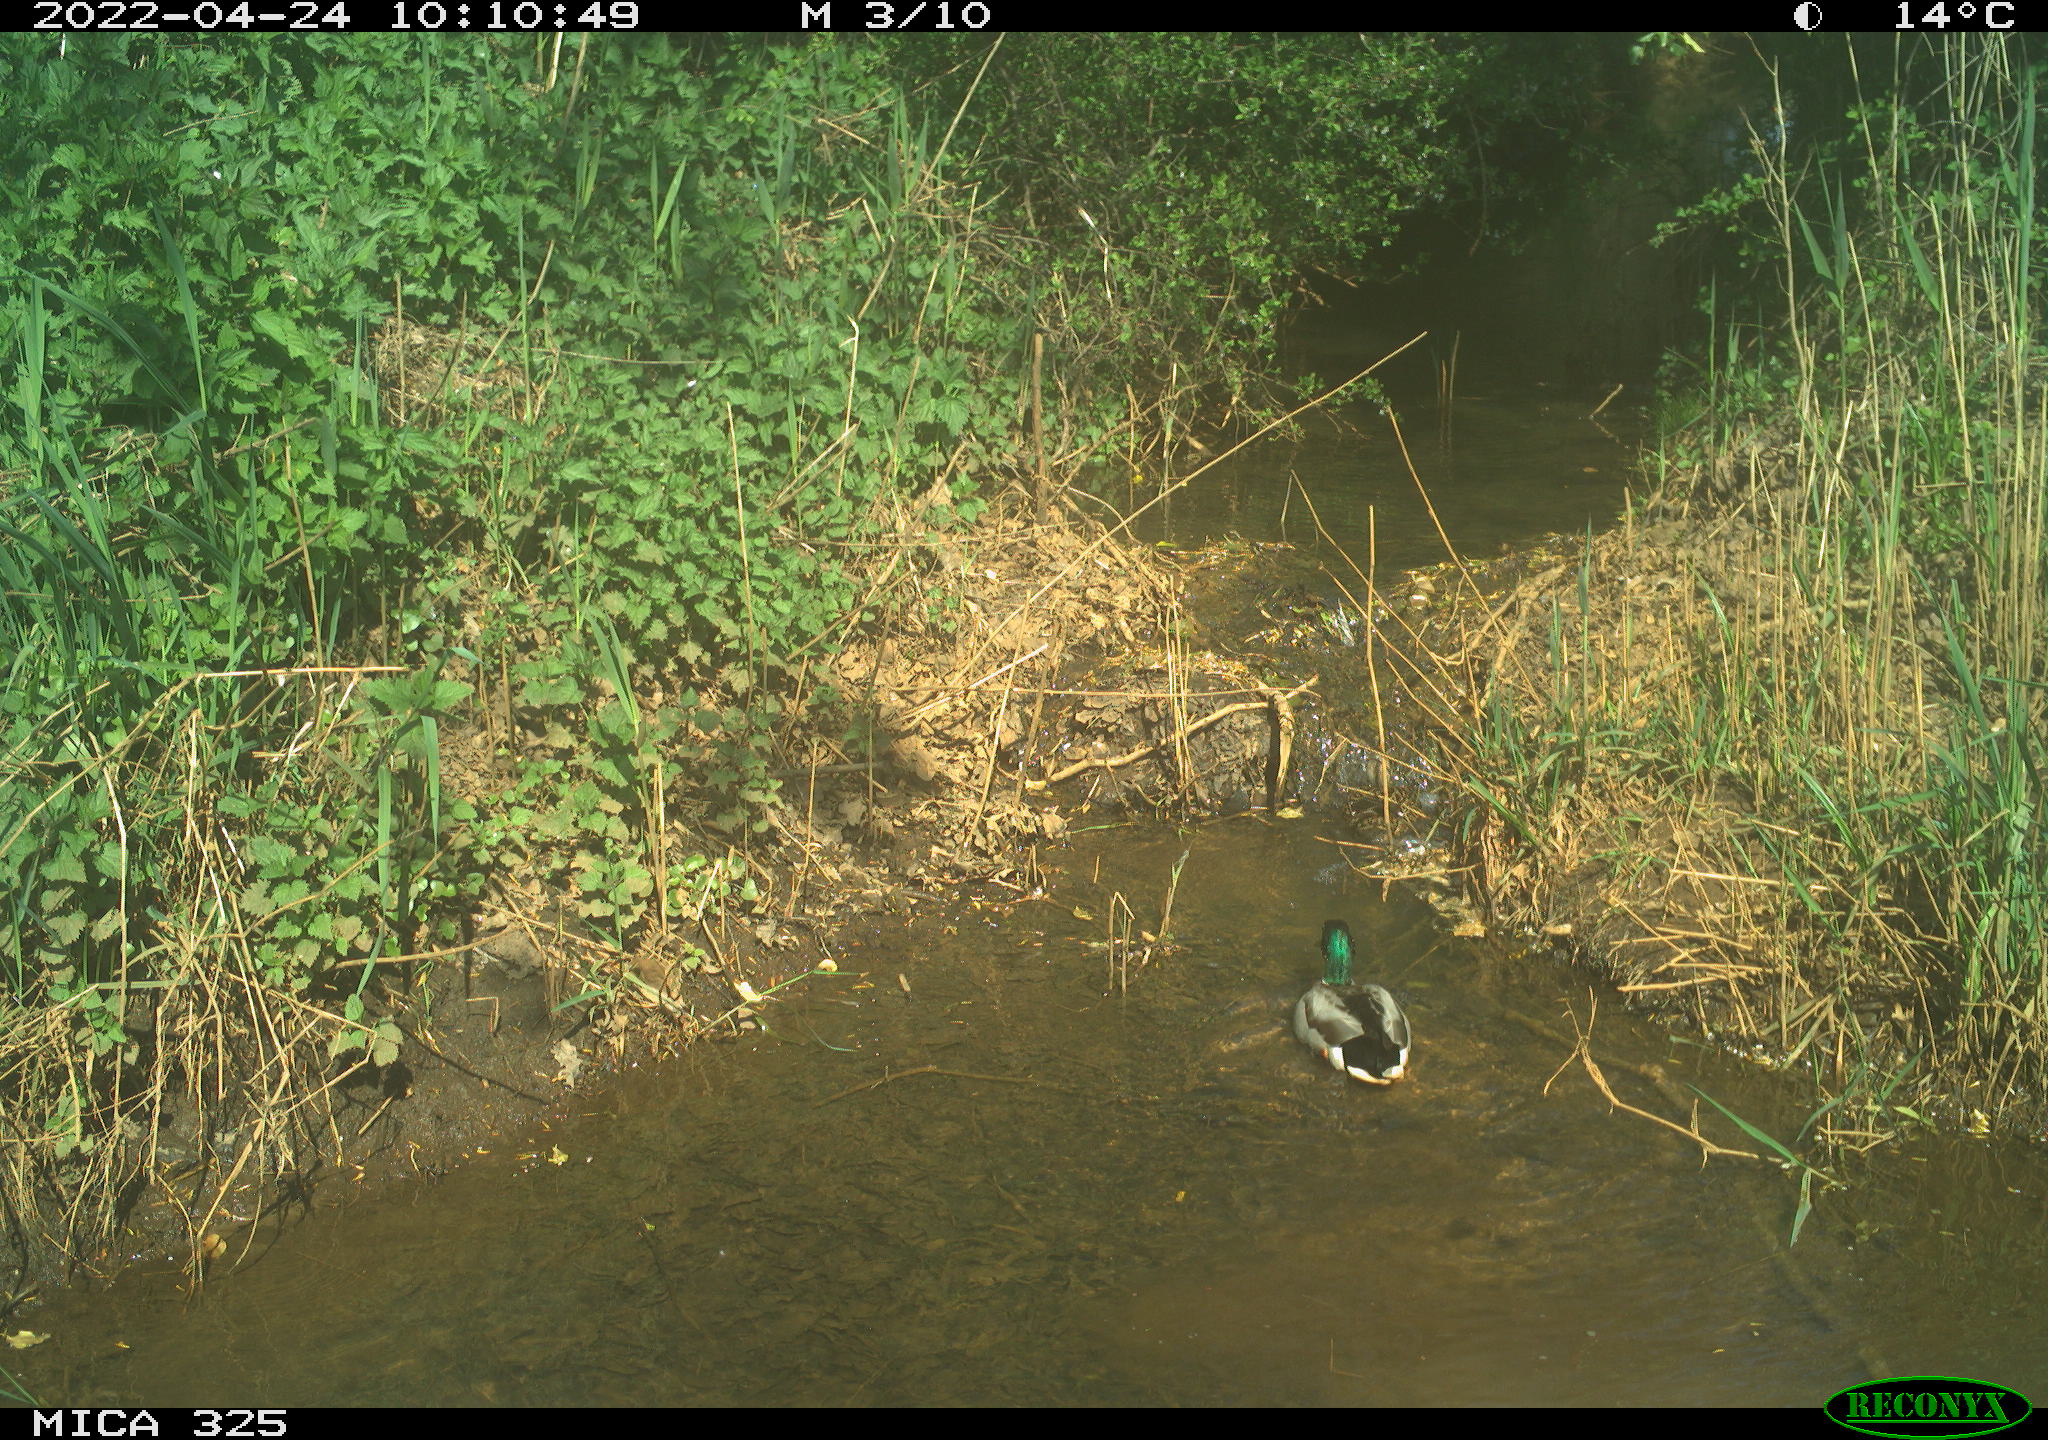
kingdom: Animalia
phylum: Chordata
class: Aves
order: Anseriformes
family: Anatidae
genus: Anas
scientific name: Anas platyrhynchos
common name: Mallard
